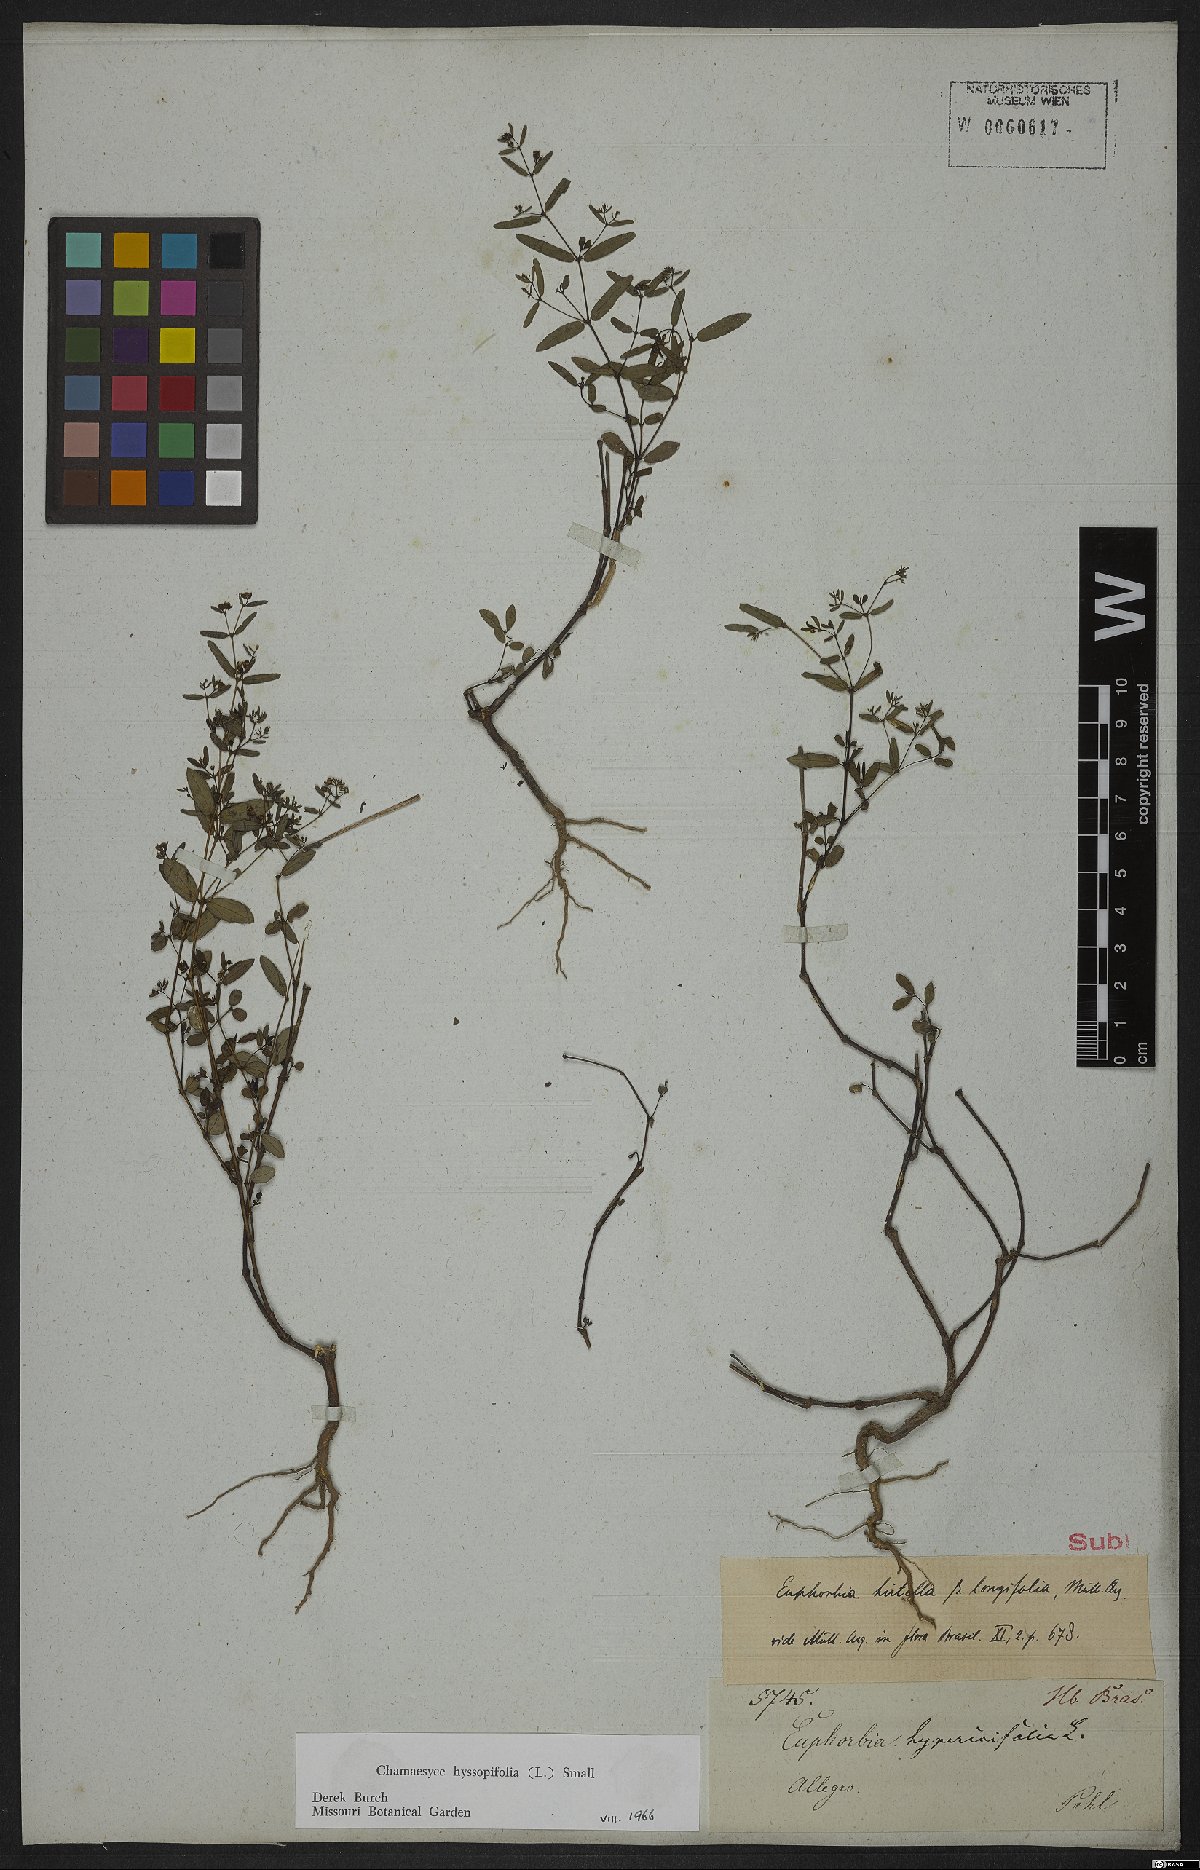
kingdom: Plantae
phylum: Tracheophyta
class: Magnoliopsida
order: Malpighiales
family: Euphorbiaceae
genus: Euphorbia
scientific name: Euphorbia hirtella
